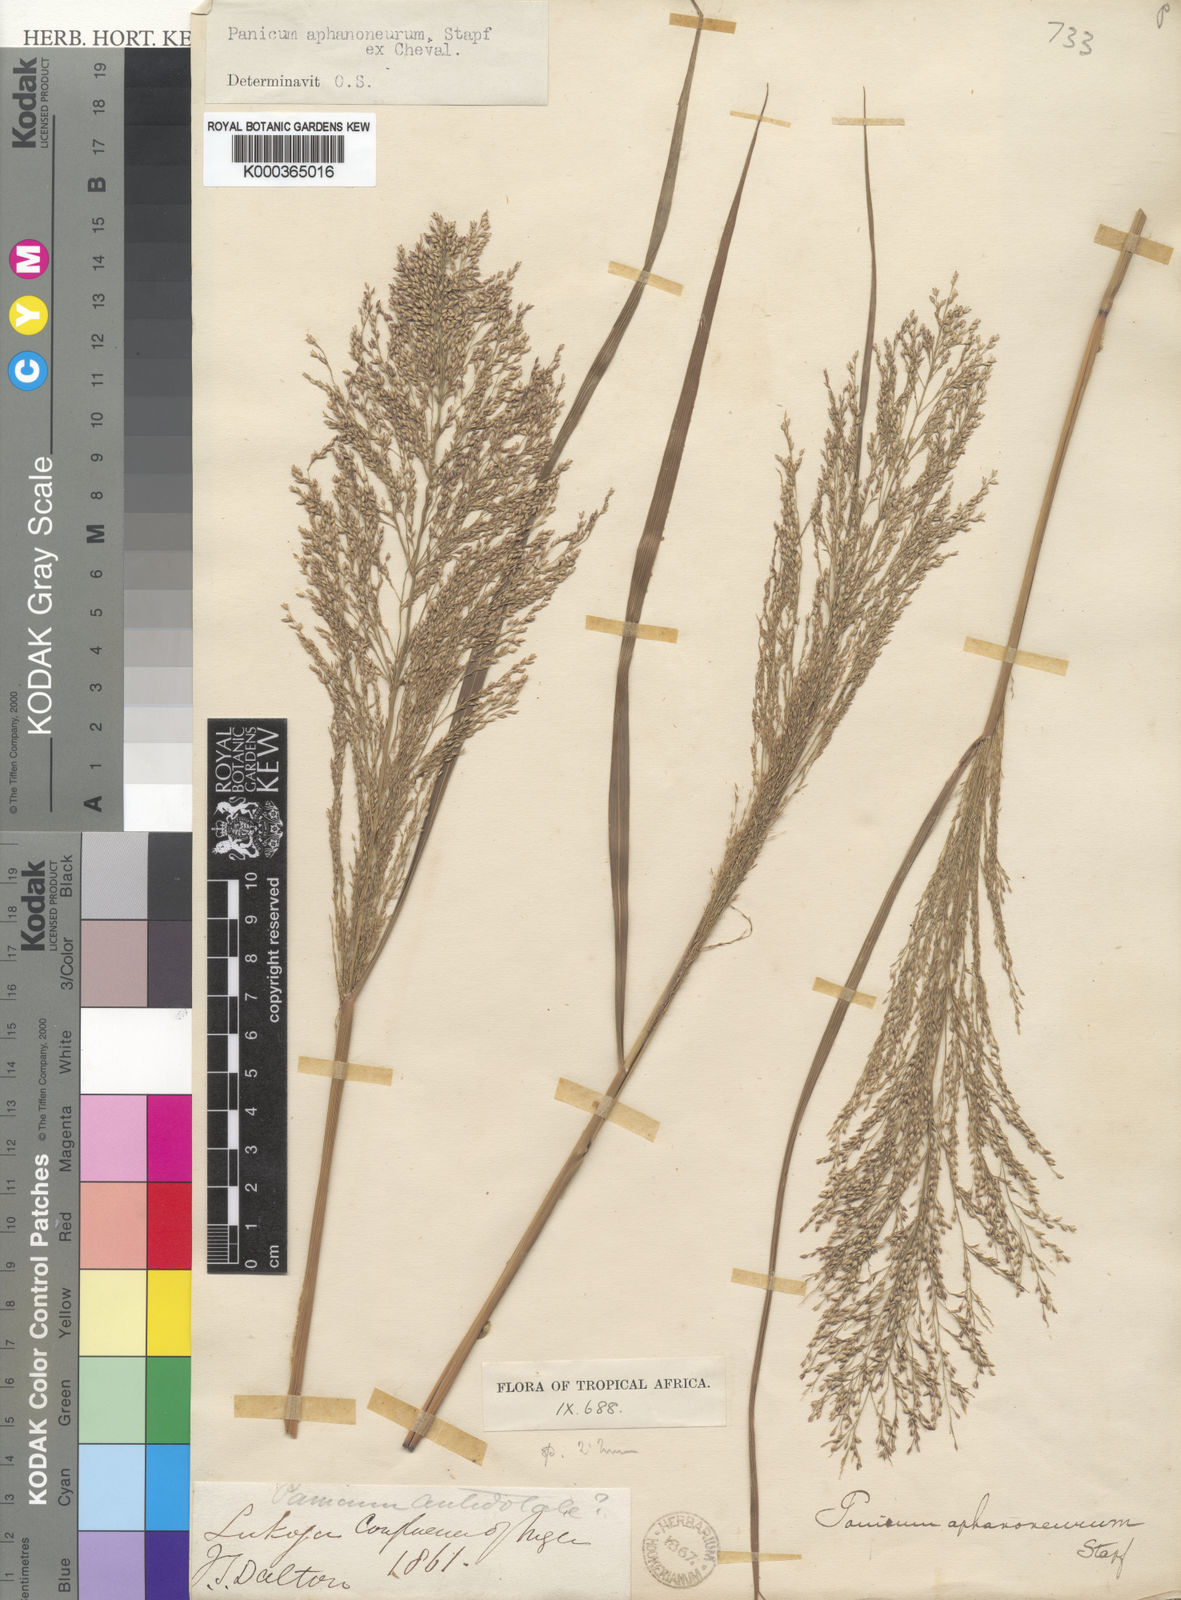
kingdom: Plantae
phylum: Tracheophyta
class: Liliopsida
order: Poales
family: Poaceae
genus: Panicum
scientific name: Panicum fluviicola
